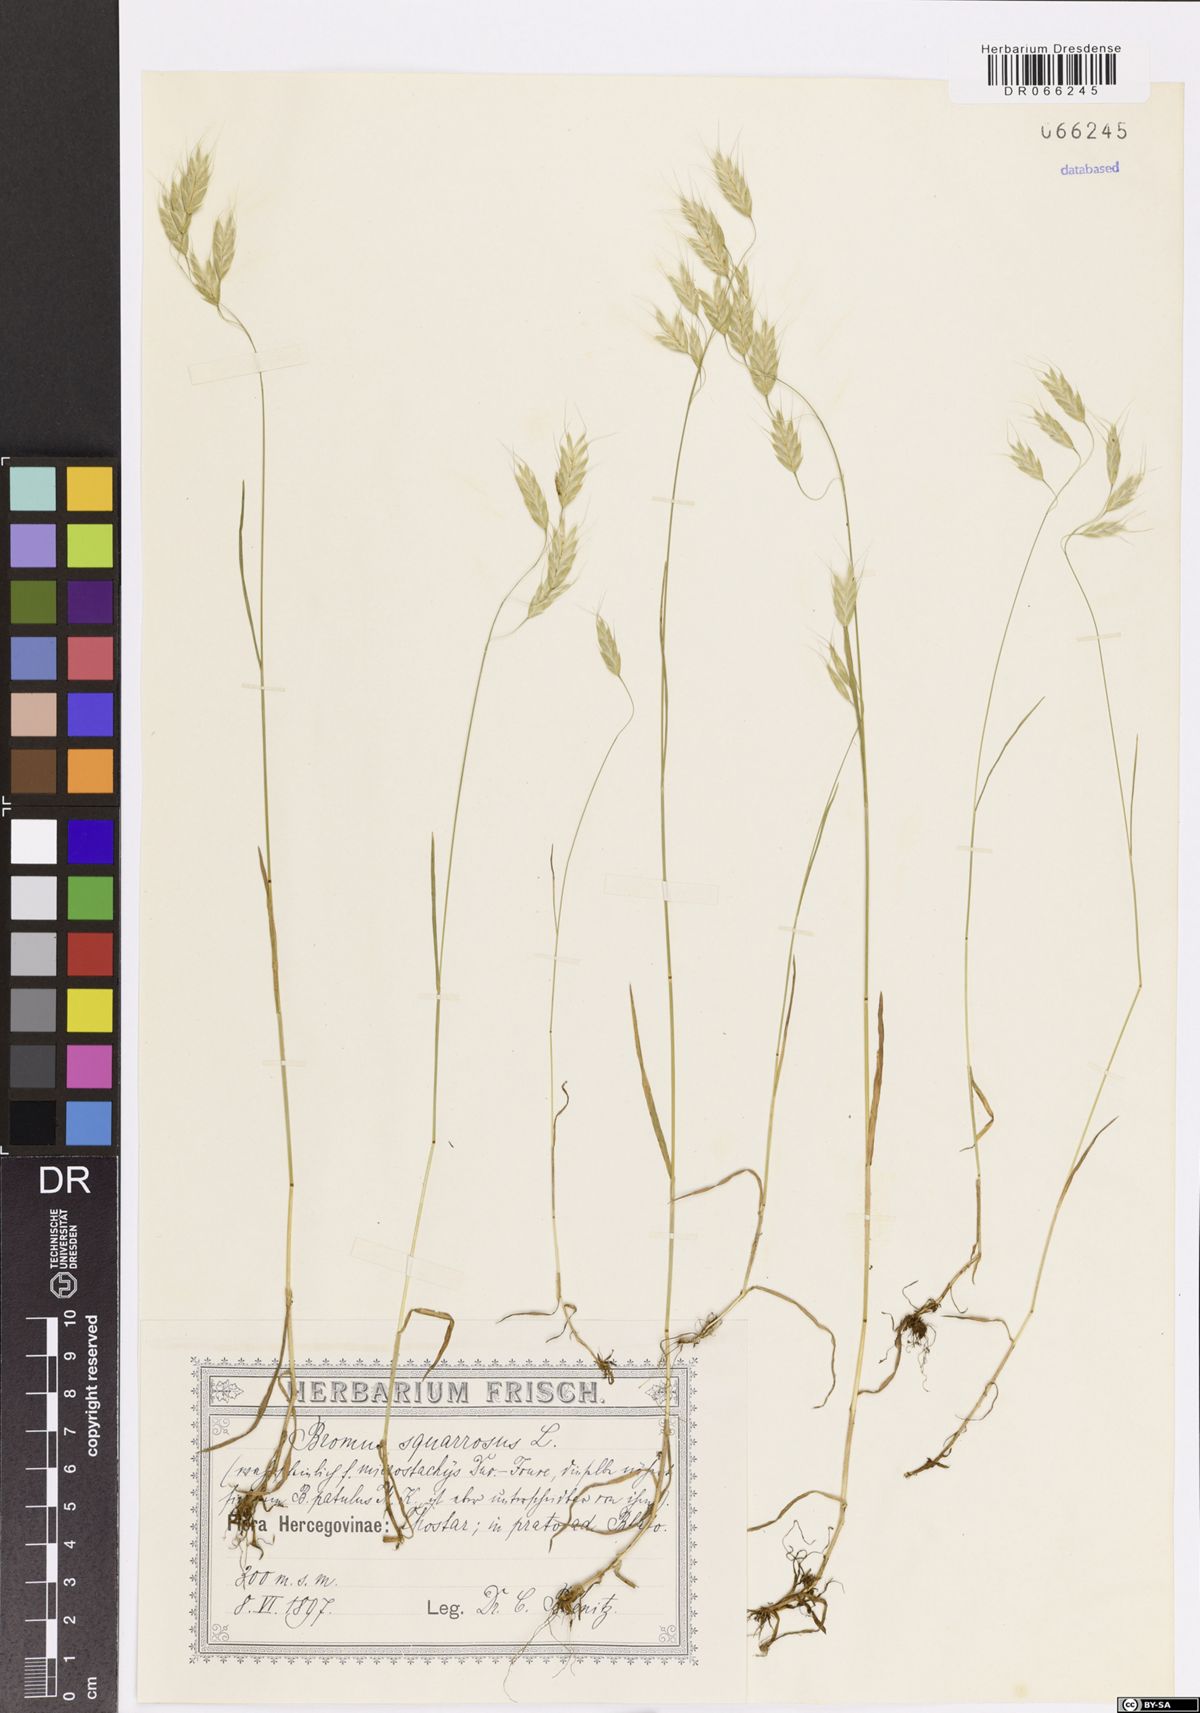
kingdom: Plantae
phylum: Tracheophyta
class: Liliopsida
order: Poales
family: Poaceae
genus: Bromus
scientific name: Bromus squarrosus
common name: Corn brome
